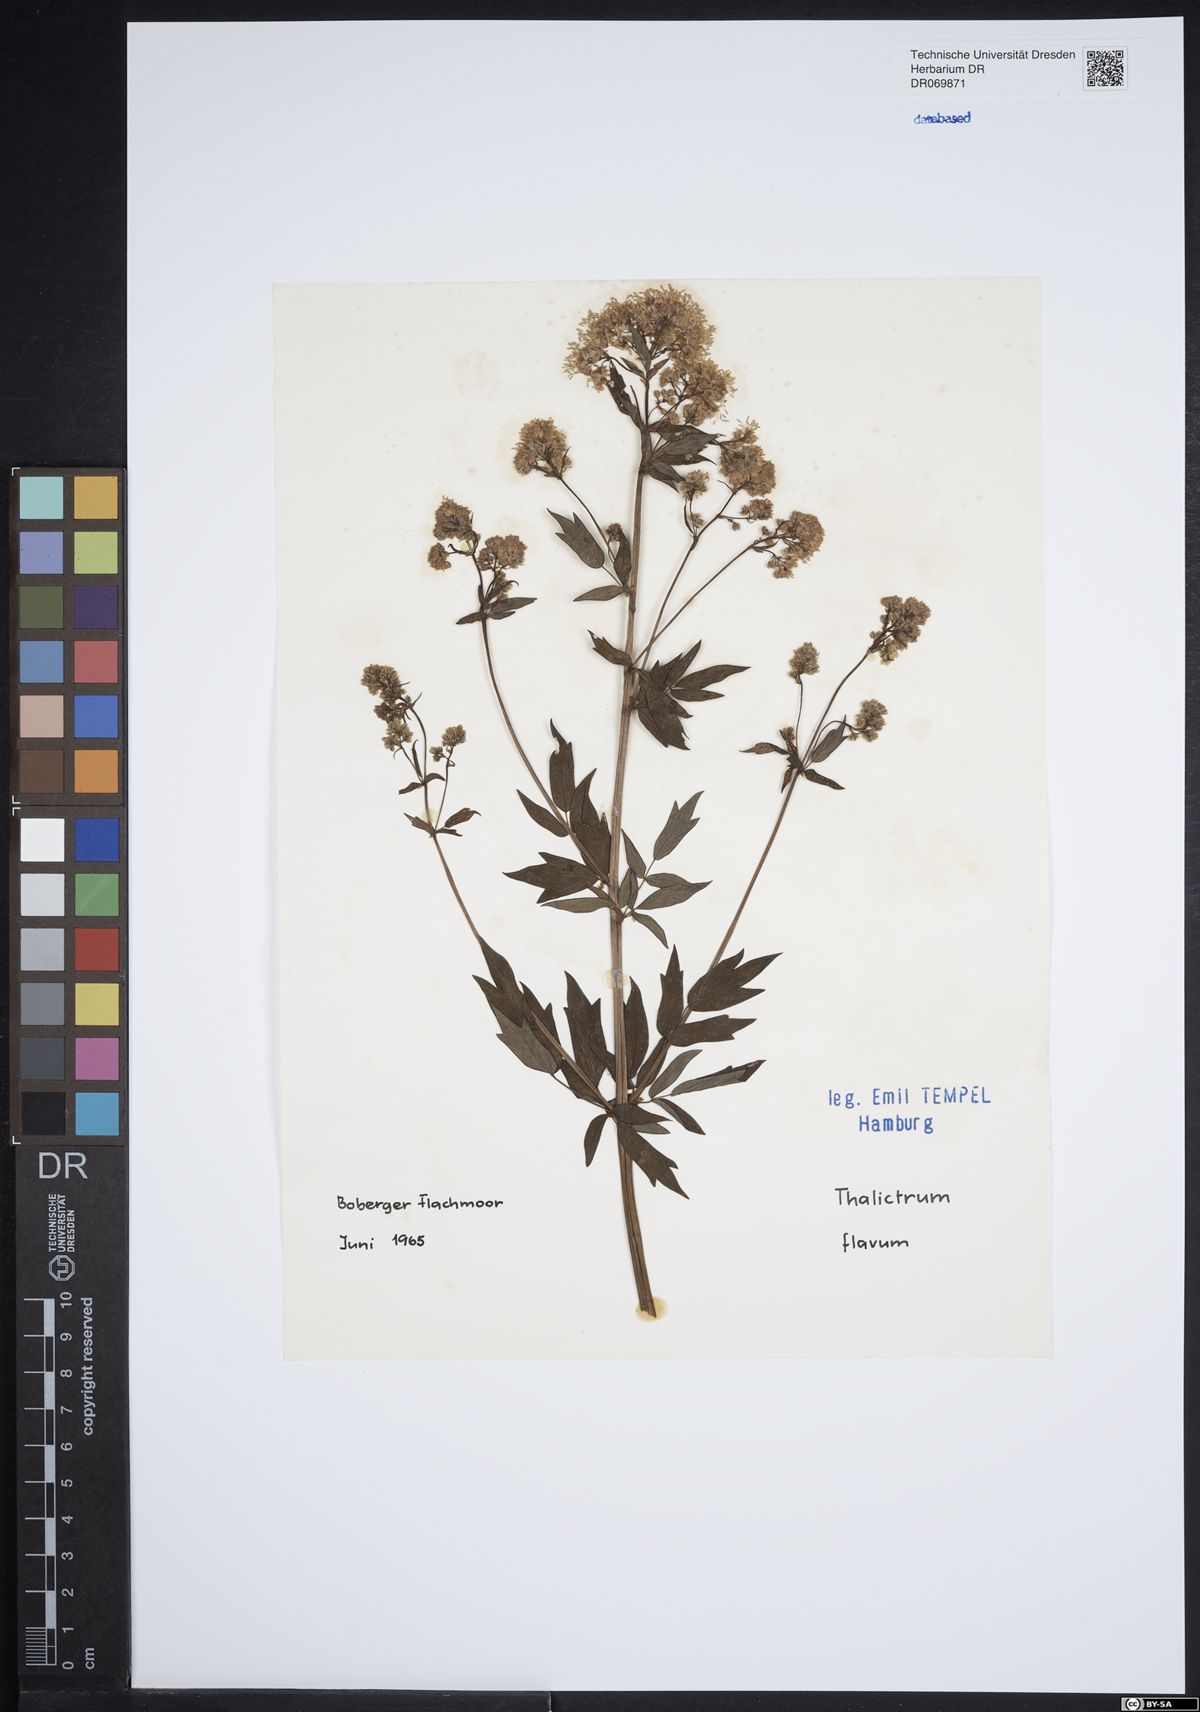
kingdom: Plantae
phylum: Tracheophyta
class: Magnoliopsida
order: Ranunculales
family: Ranunculaceae
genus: Thalictrum
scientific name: Thalictrum flavum
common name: Common meadow-rue
